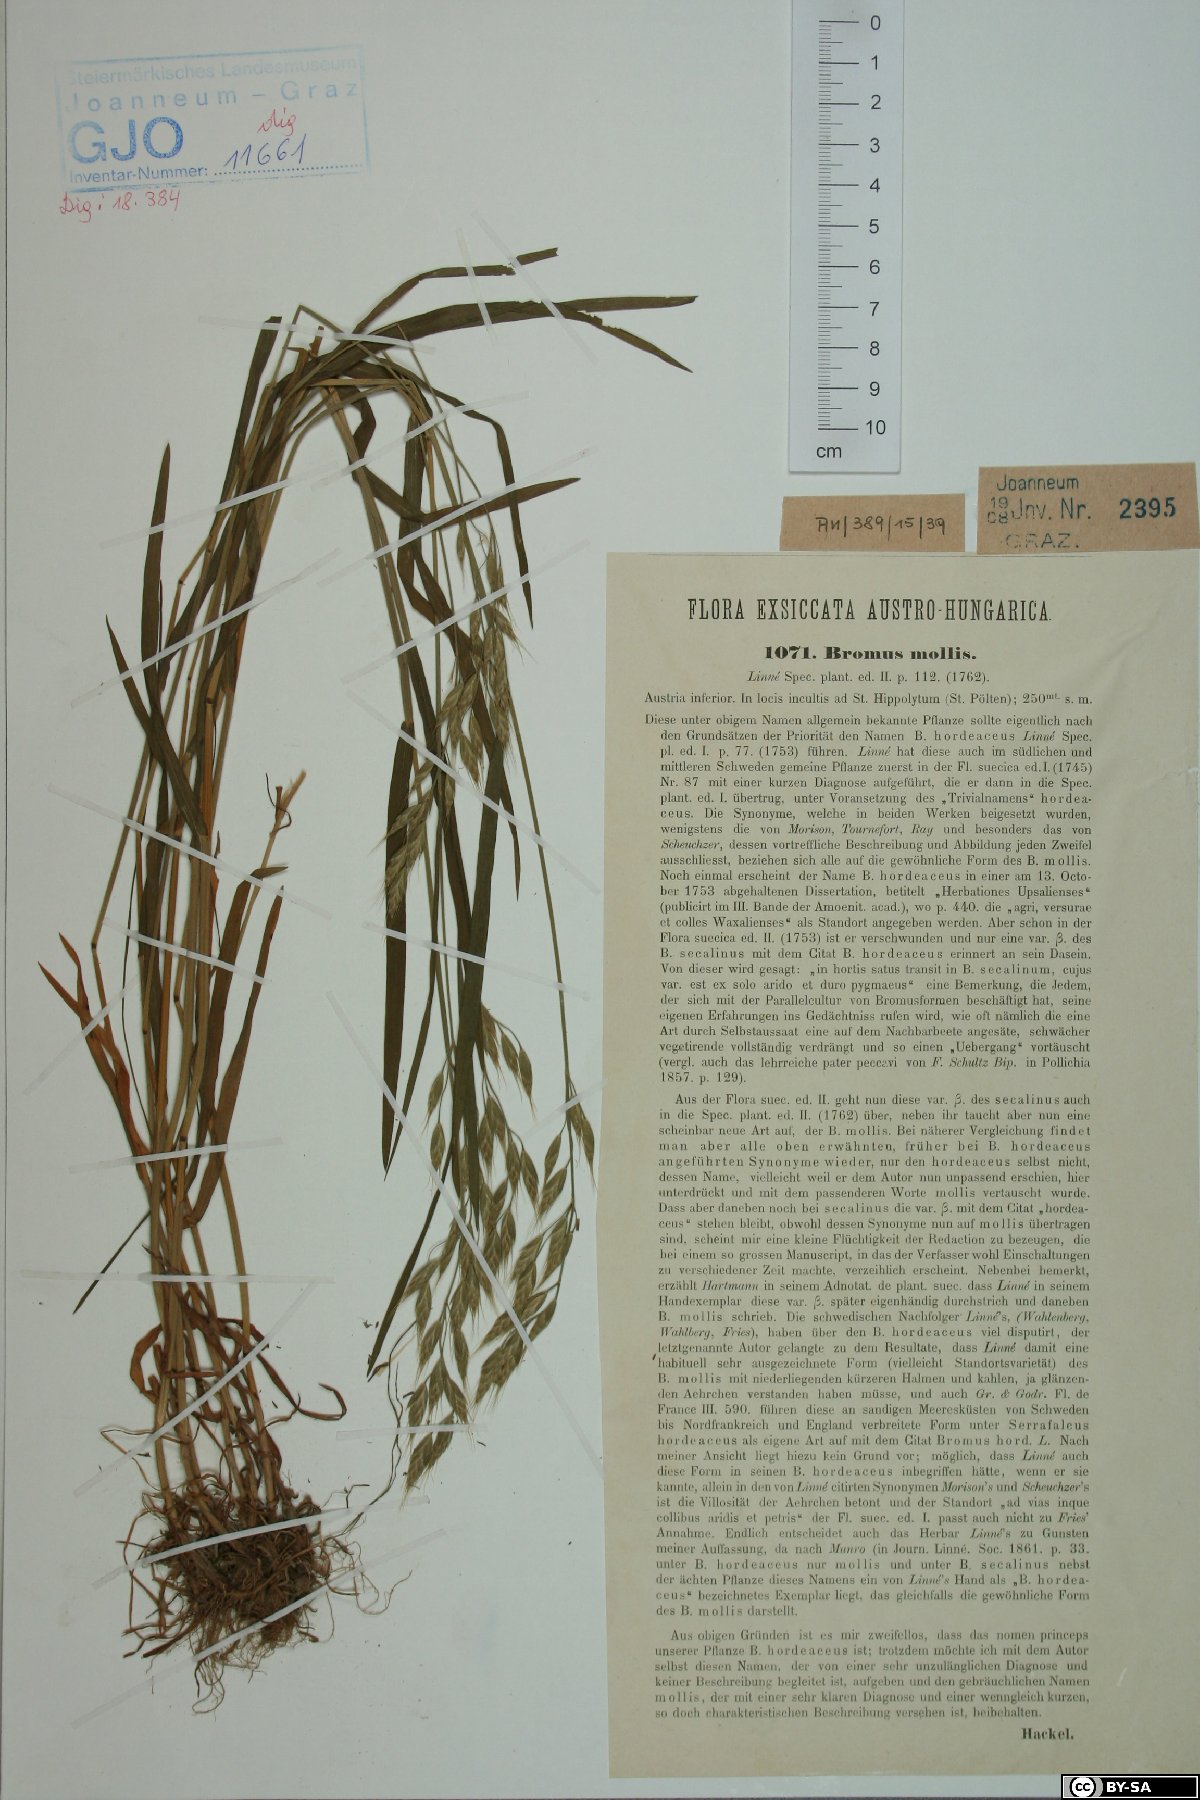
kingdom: Plantae
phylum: Tracheophyta
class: Liliopsida
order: Poales
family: Poaceae
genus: Bromus
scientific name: Bromus hordeaceus
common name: Soft brome
